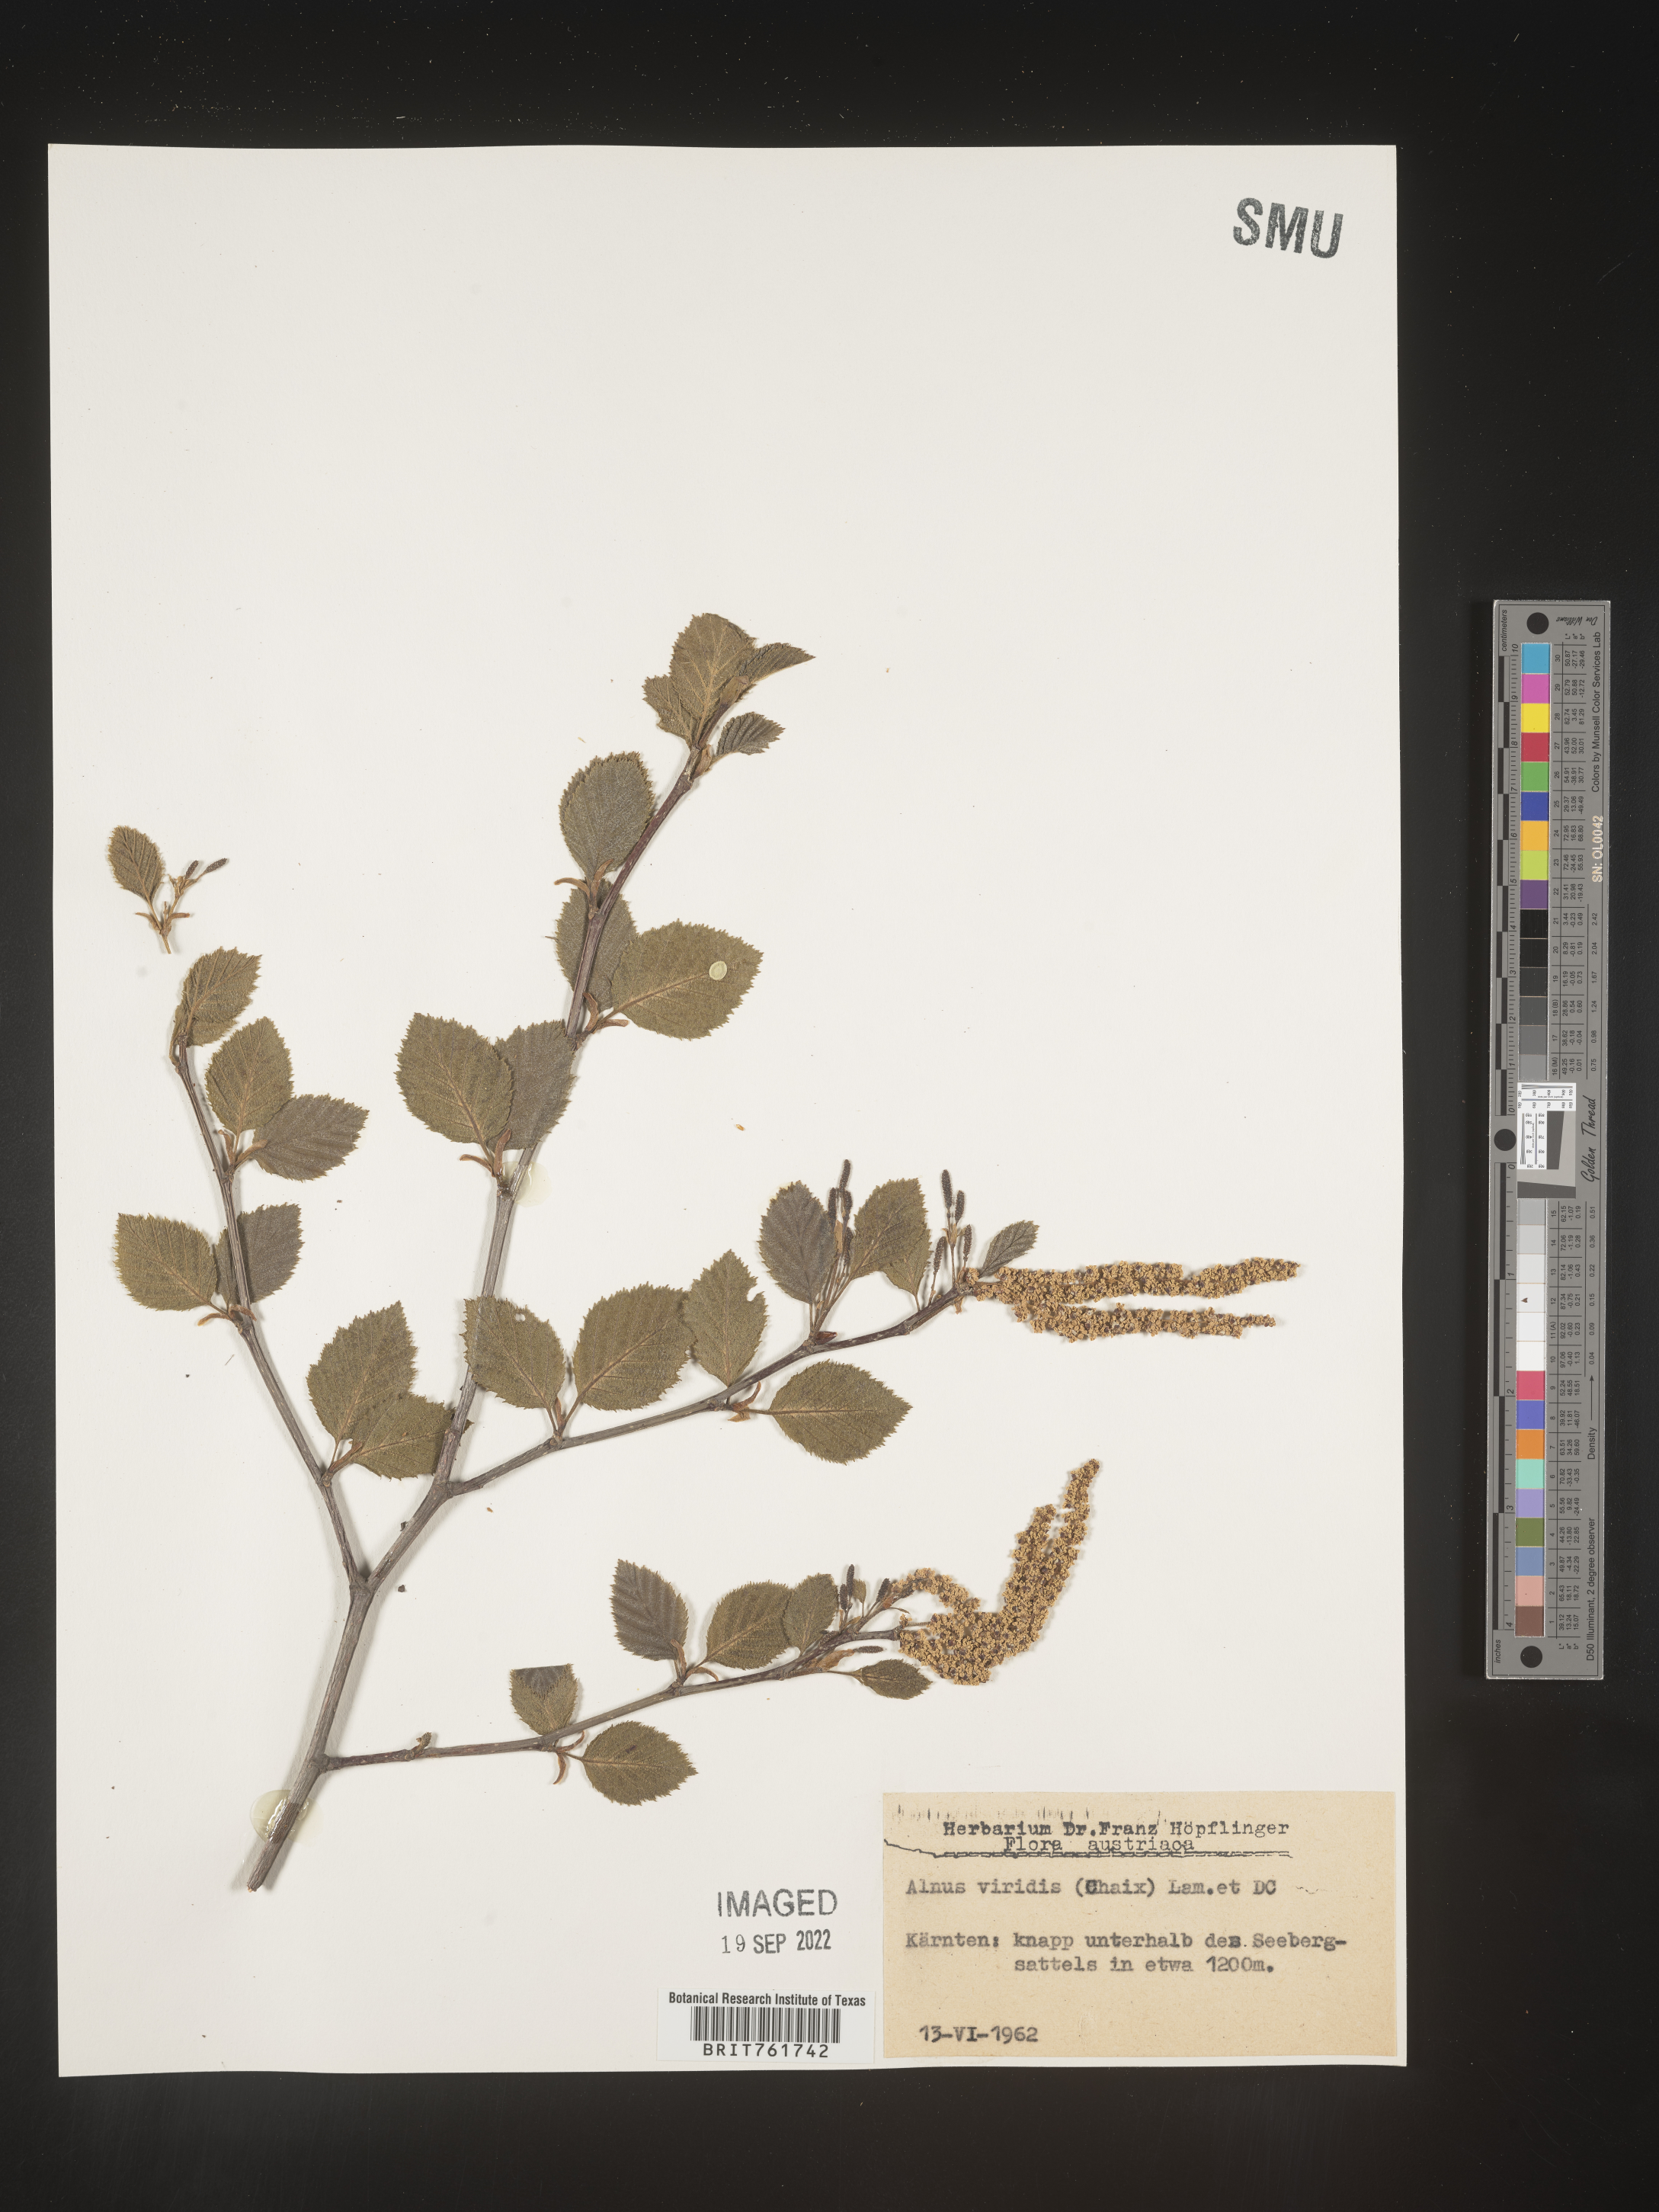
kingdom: Plantae
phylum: Tracheophyta
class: Magnoliopsida
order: Fagales
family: Betulaceae
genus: Alnus
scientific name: Alnus
